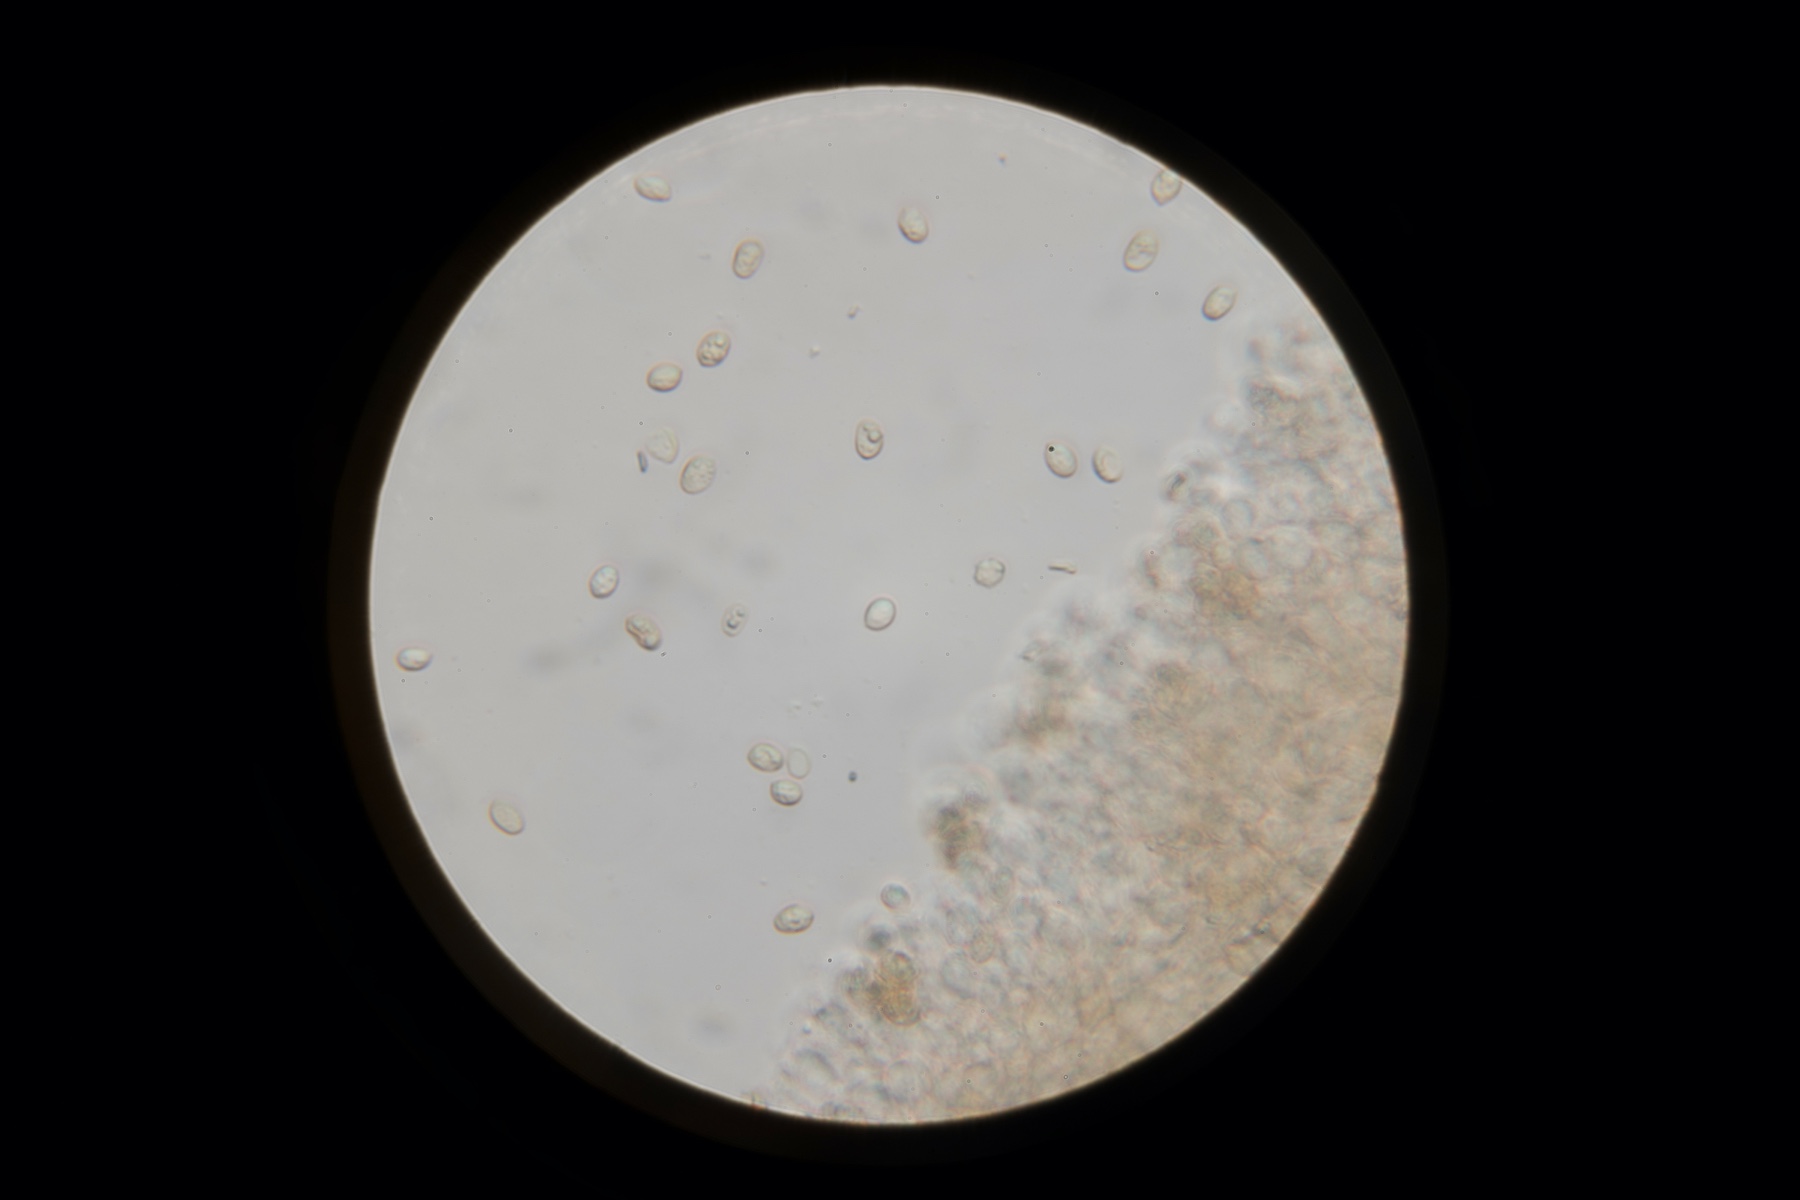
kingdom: Fungi
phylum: Basidiomycota
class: Agaricomycetes
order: Agaricales
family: Tubariaceae
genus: Tubaria
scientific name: Tubaria furfuracea
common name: kliddet fnughat
